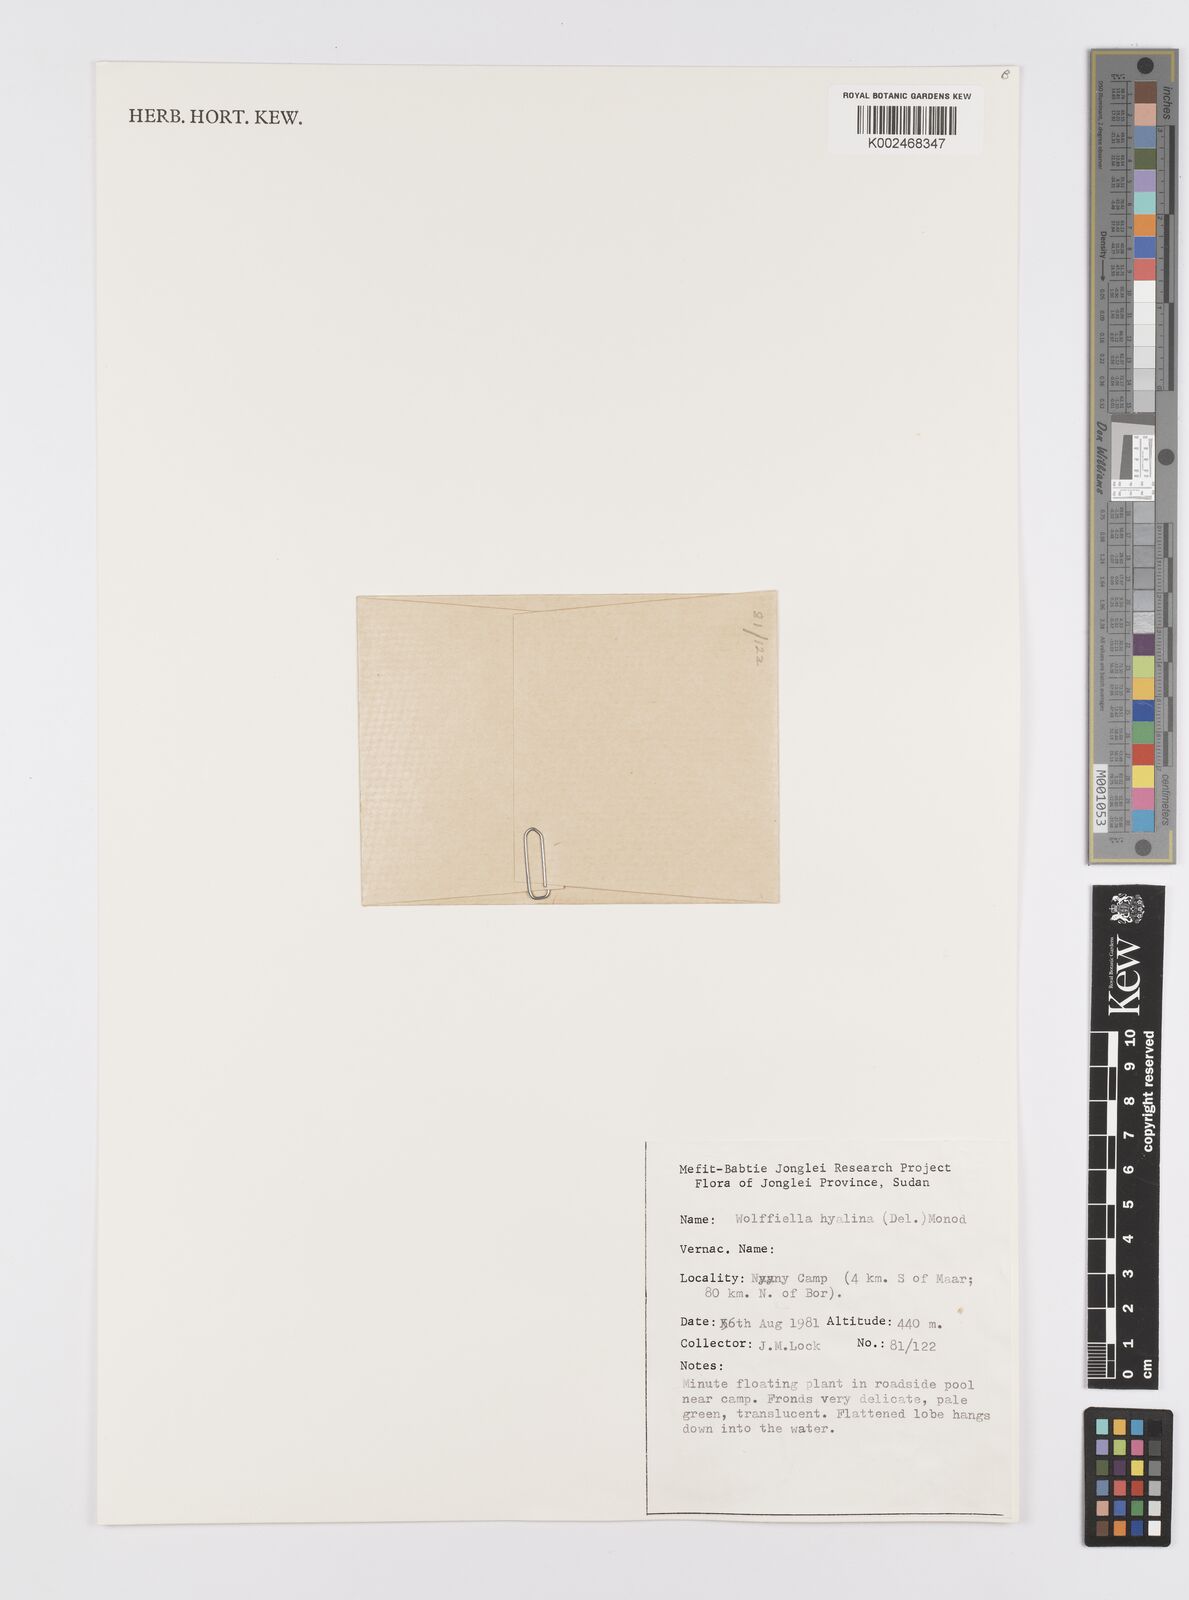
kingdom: Plantae
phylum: Tracheophyta
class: Liliopsida
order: Alismatales
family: Araceae
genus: Wolffiella
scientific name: Wolffiella hyalina
